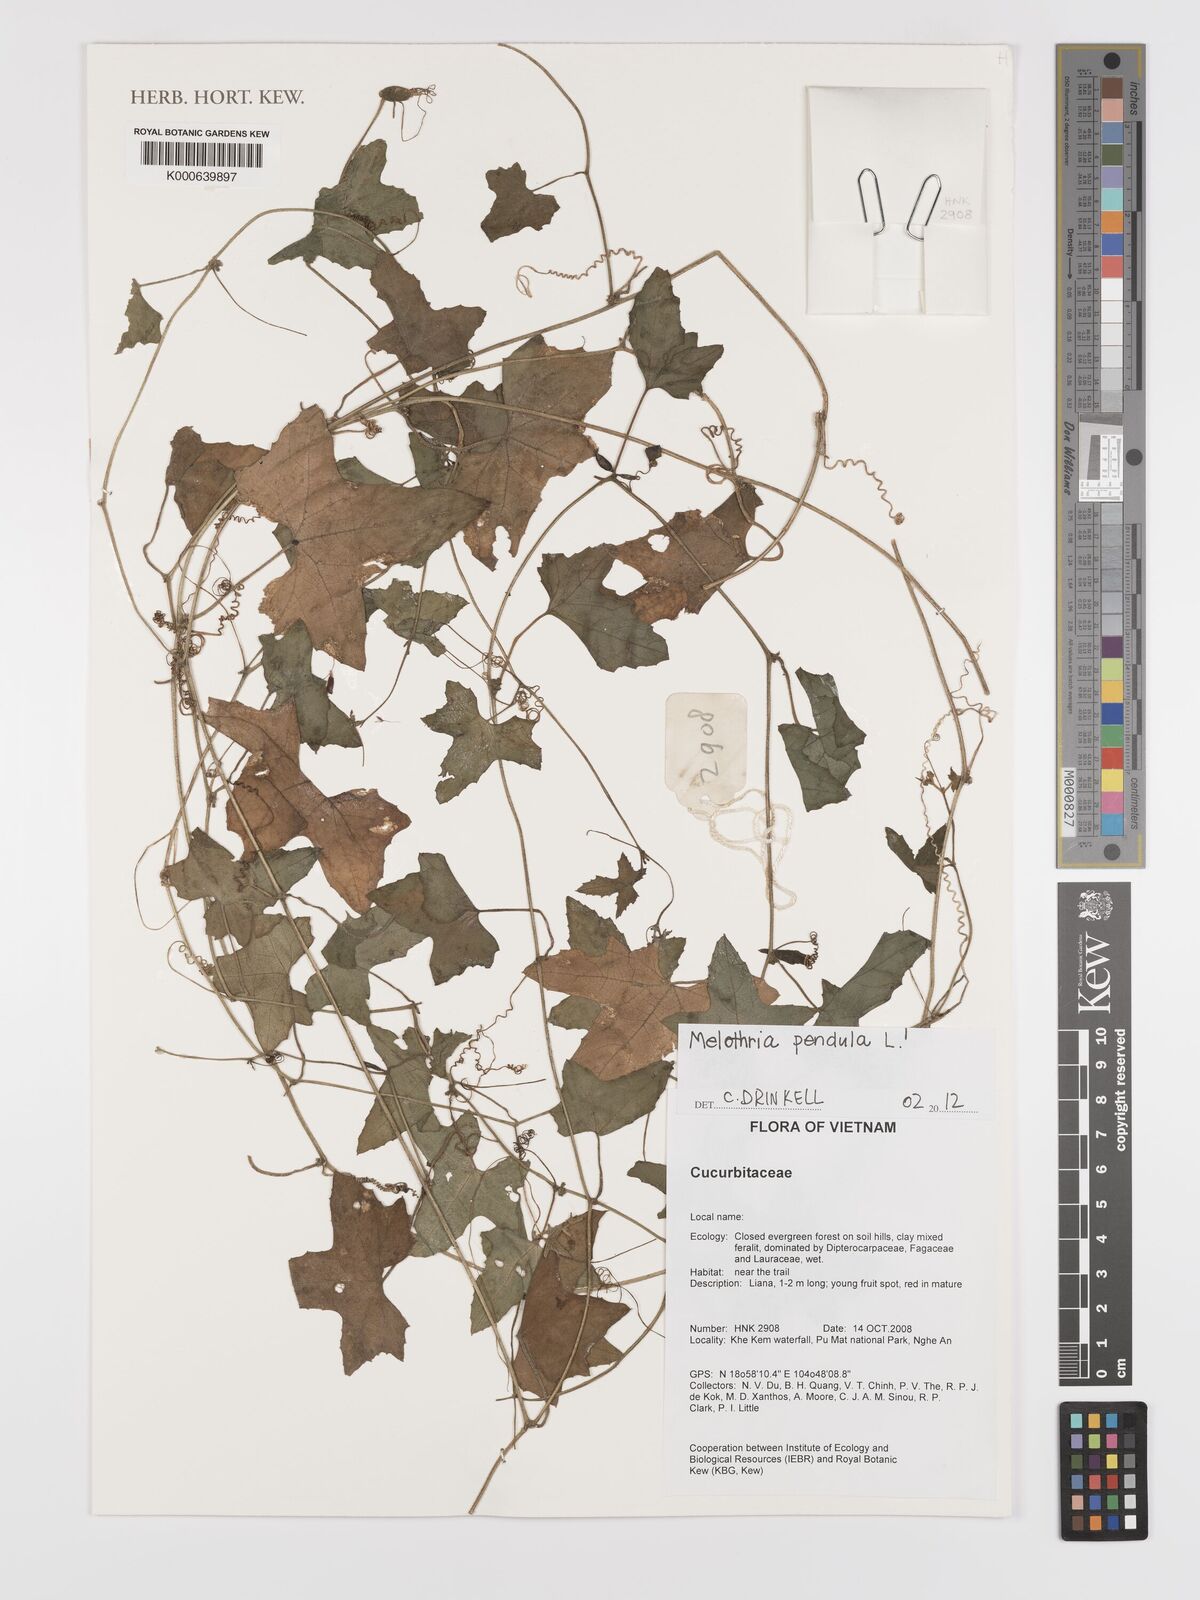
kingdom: Plantae
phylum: Tracheophyta
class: Magnoliopsida
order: Cucurbitales
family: Cucurbitaceae
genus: Melothria
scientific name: Melothria pendula
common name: Creeping-cucumber
